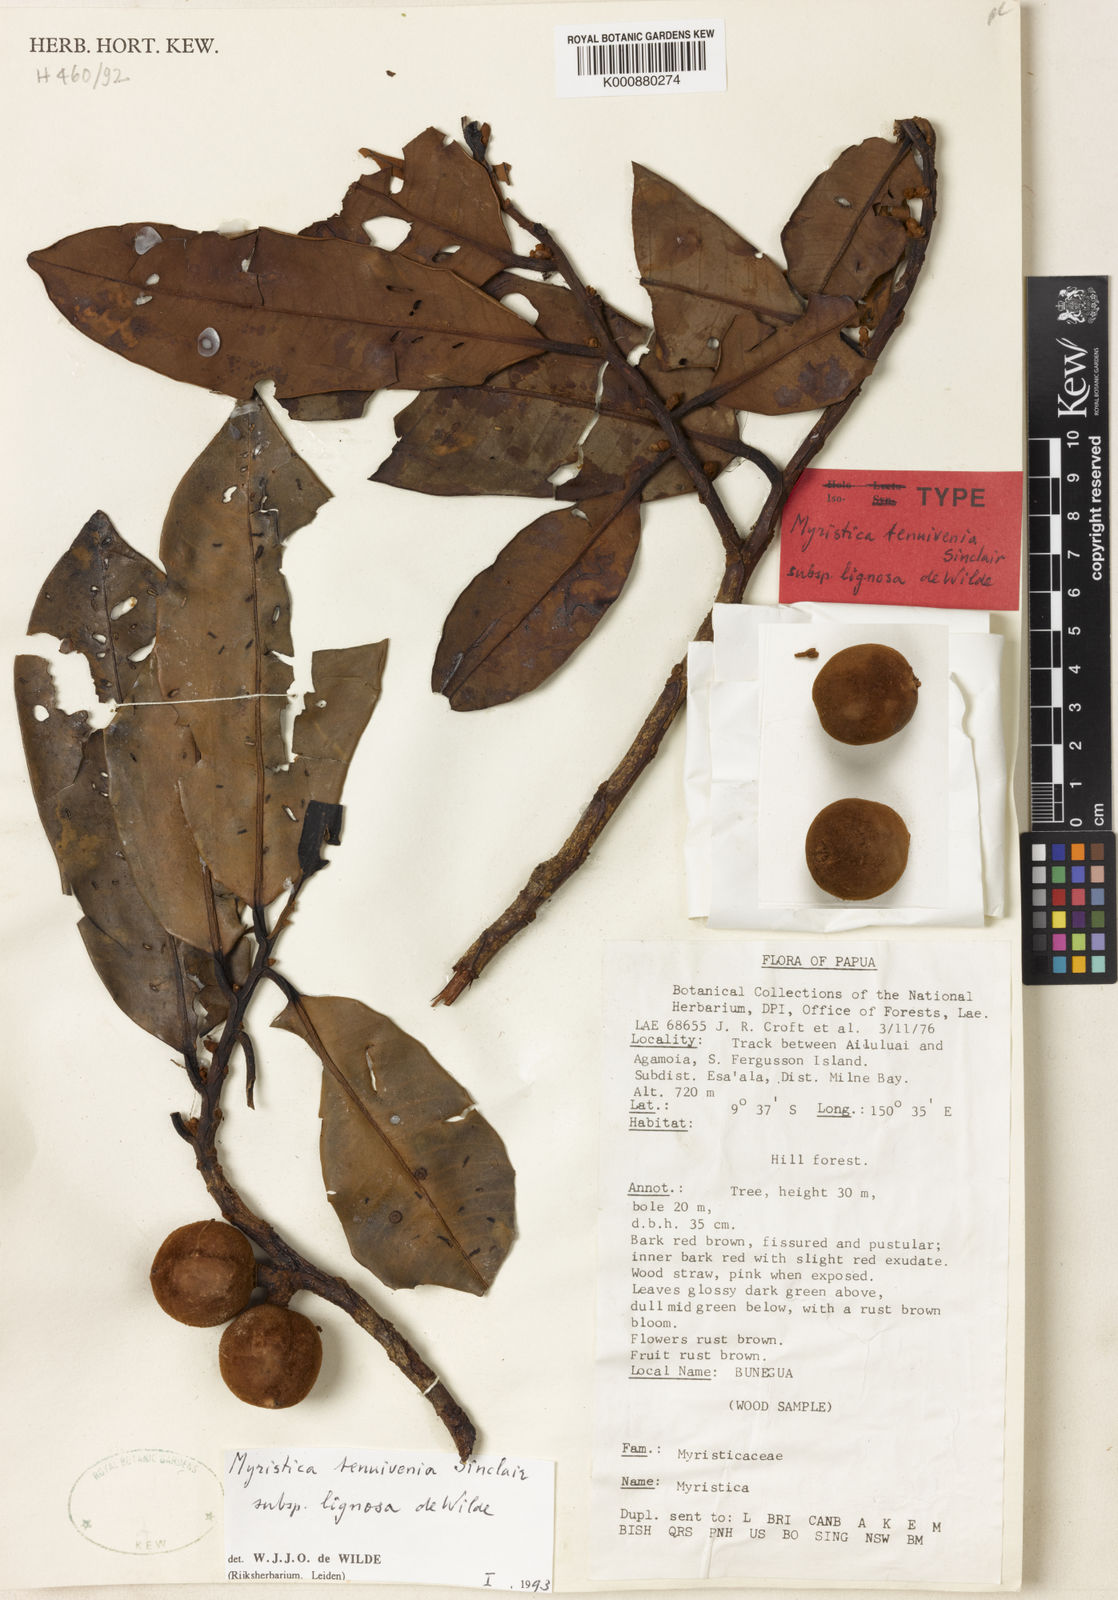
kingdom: Plantae
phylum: Tracheophyta
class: Magnoliopsida
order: Magnoliales
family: Myristicaceae
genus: Myristica
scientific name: Myristica tenuivenia
